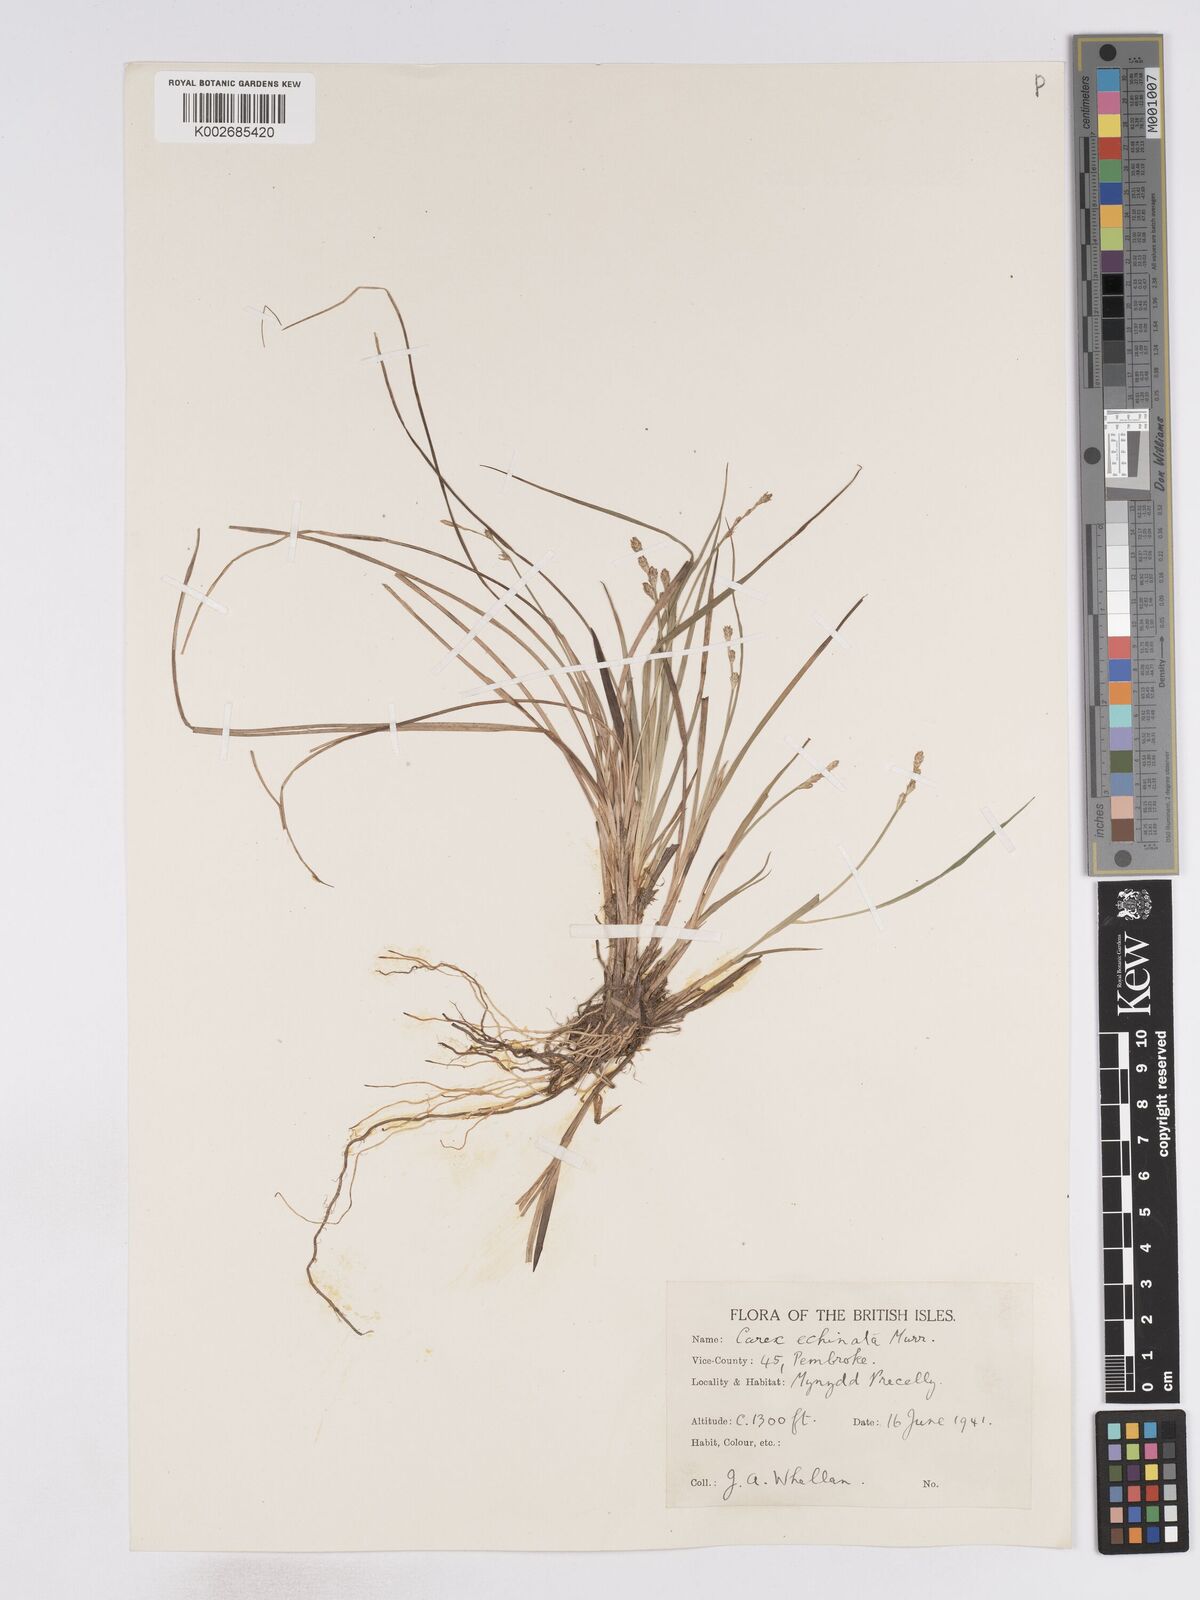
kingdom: Plantae
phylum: Tracheophyta
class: Liliopsida
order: Poales
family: Cyperaceae
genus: Carex
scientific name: Carex echinata
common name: Star sedge
